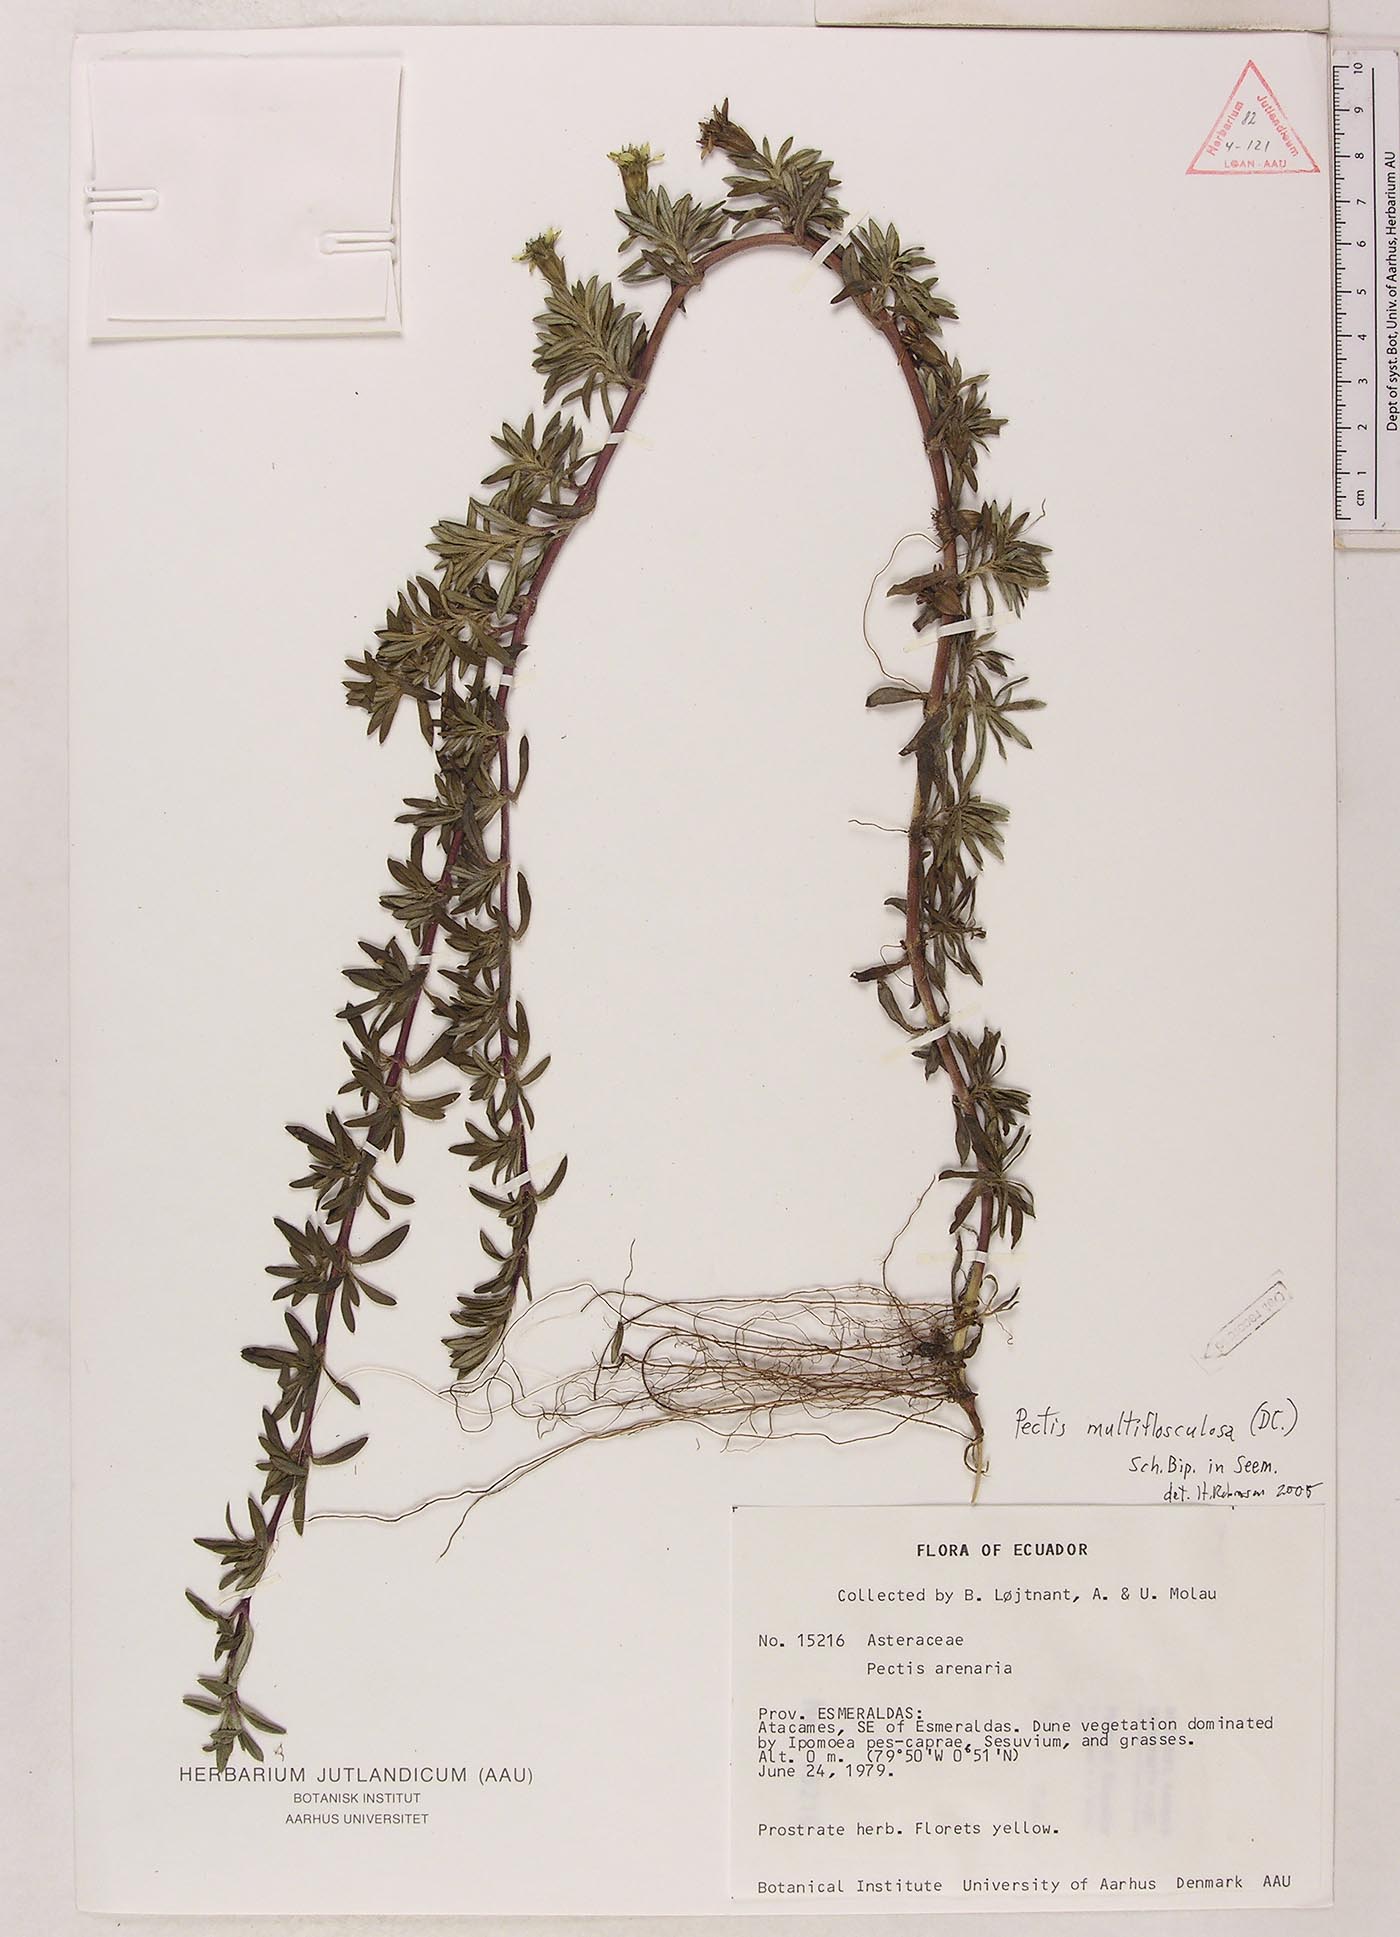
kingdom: Plantae
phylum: Tracheophyta
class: Magnoliopsida
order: Asterales
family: Asteraceae
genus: Pectis
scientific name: Pectis multiflosculosa
